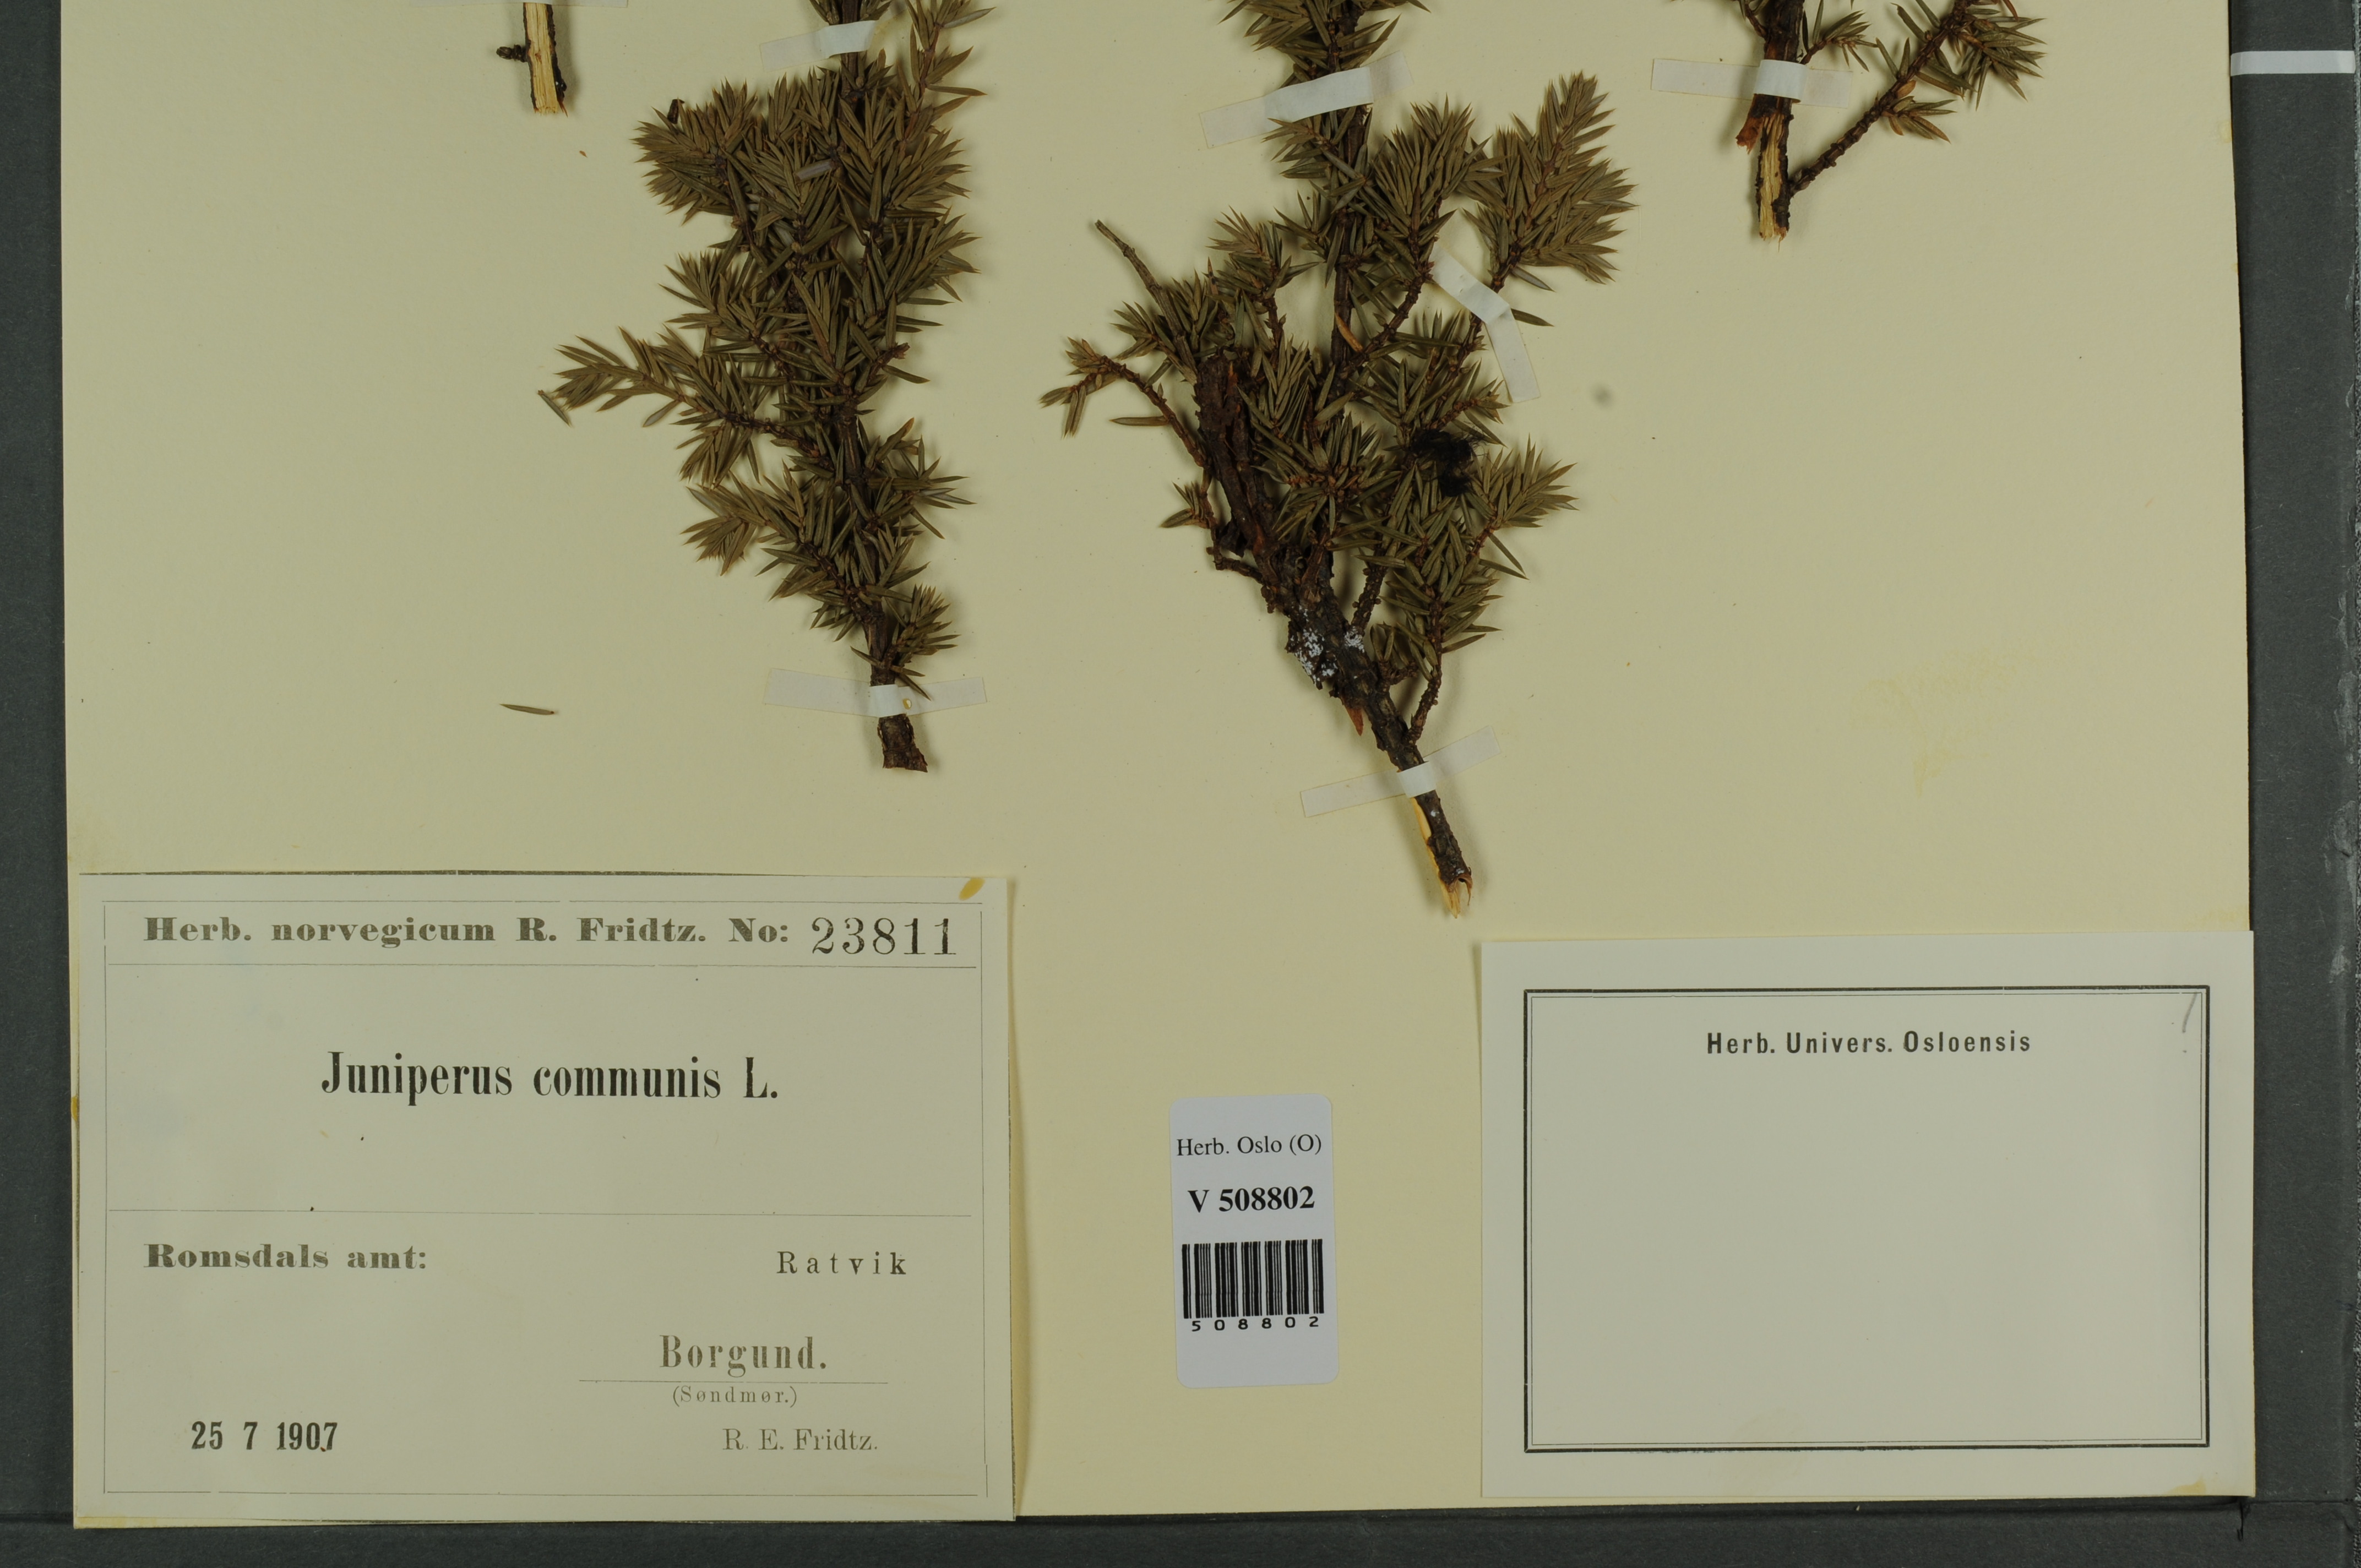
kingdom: Plantae
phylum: Tracheophyta
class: Pinopsida
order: Pinales
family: Cupressaceae
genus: Juniperus
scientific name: Juniperus communis
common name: Common juniper
